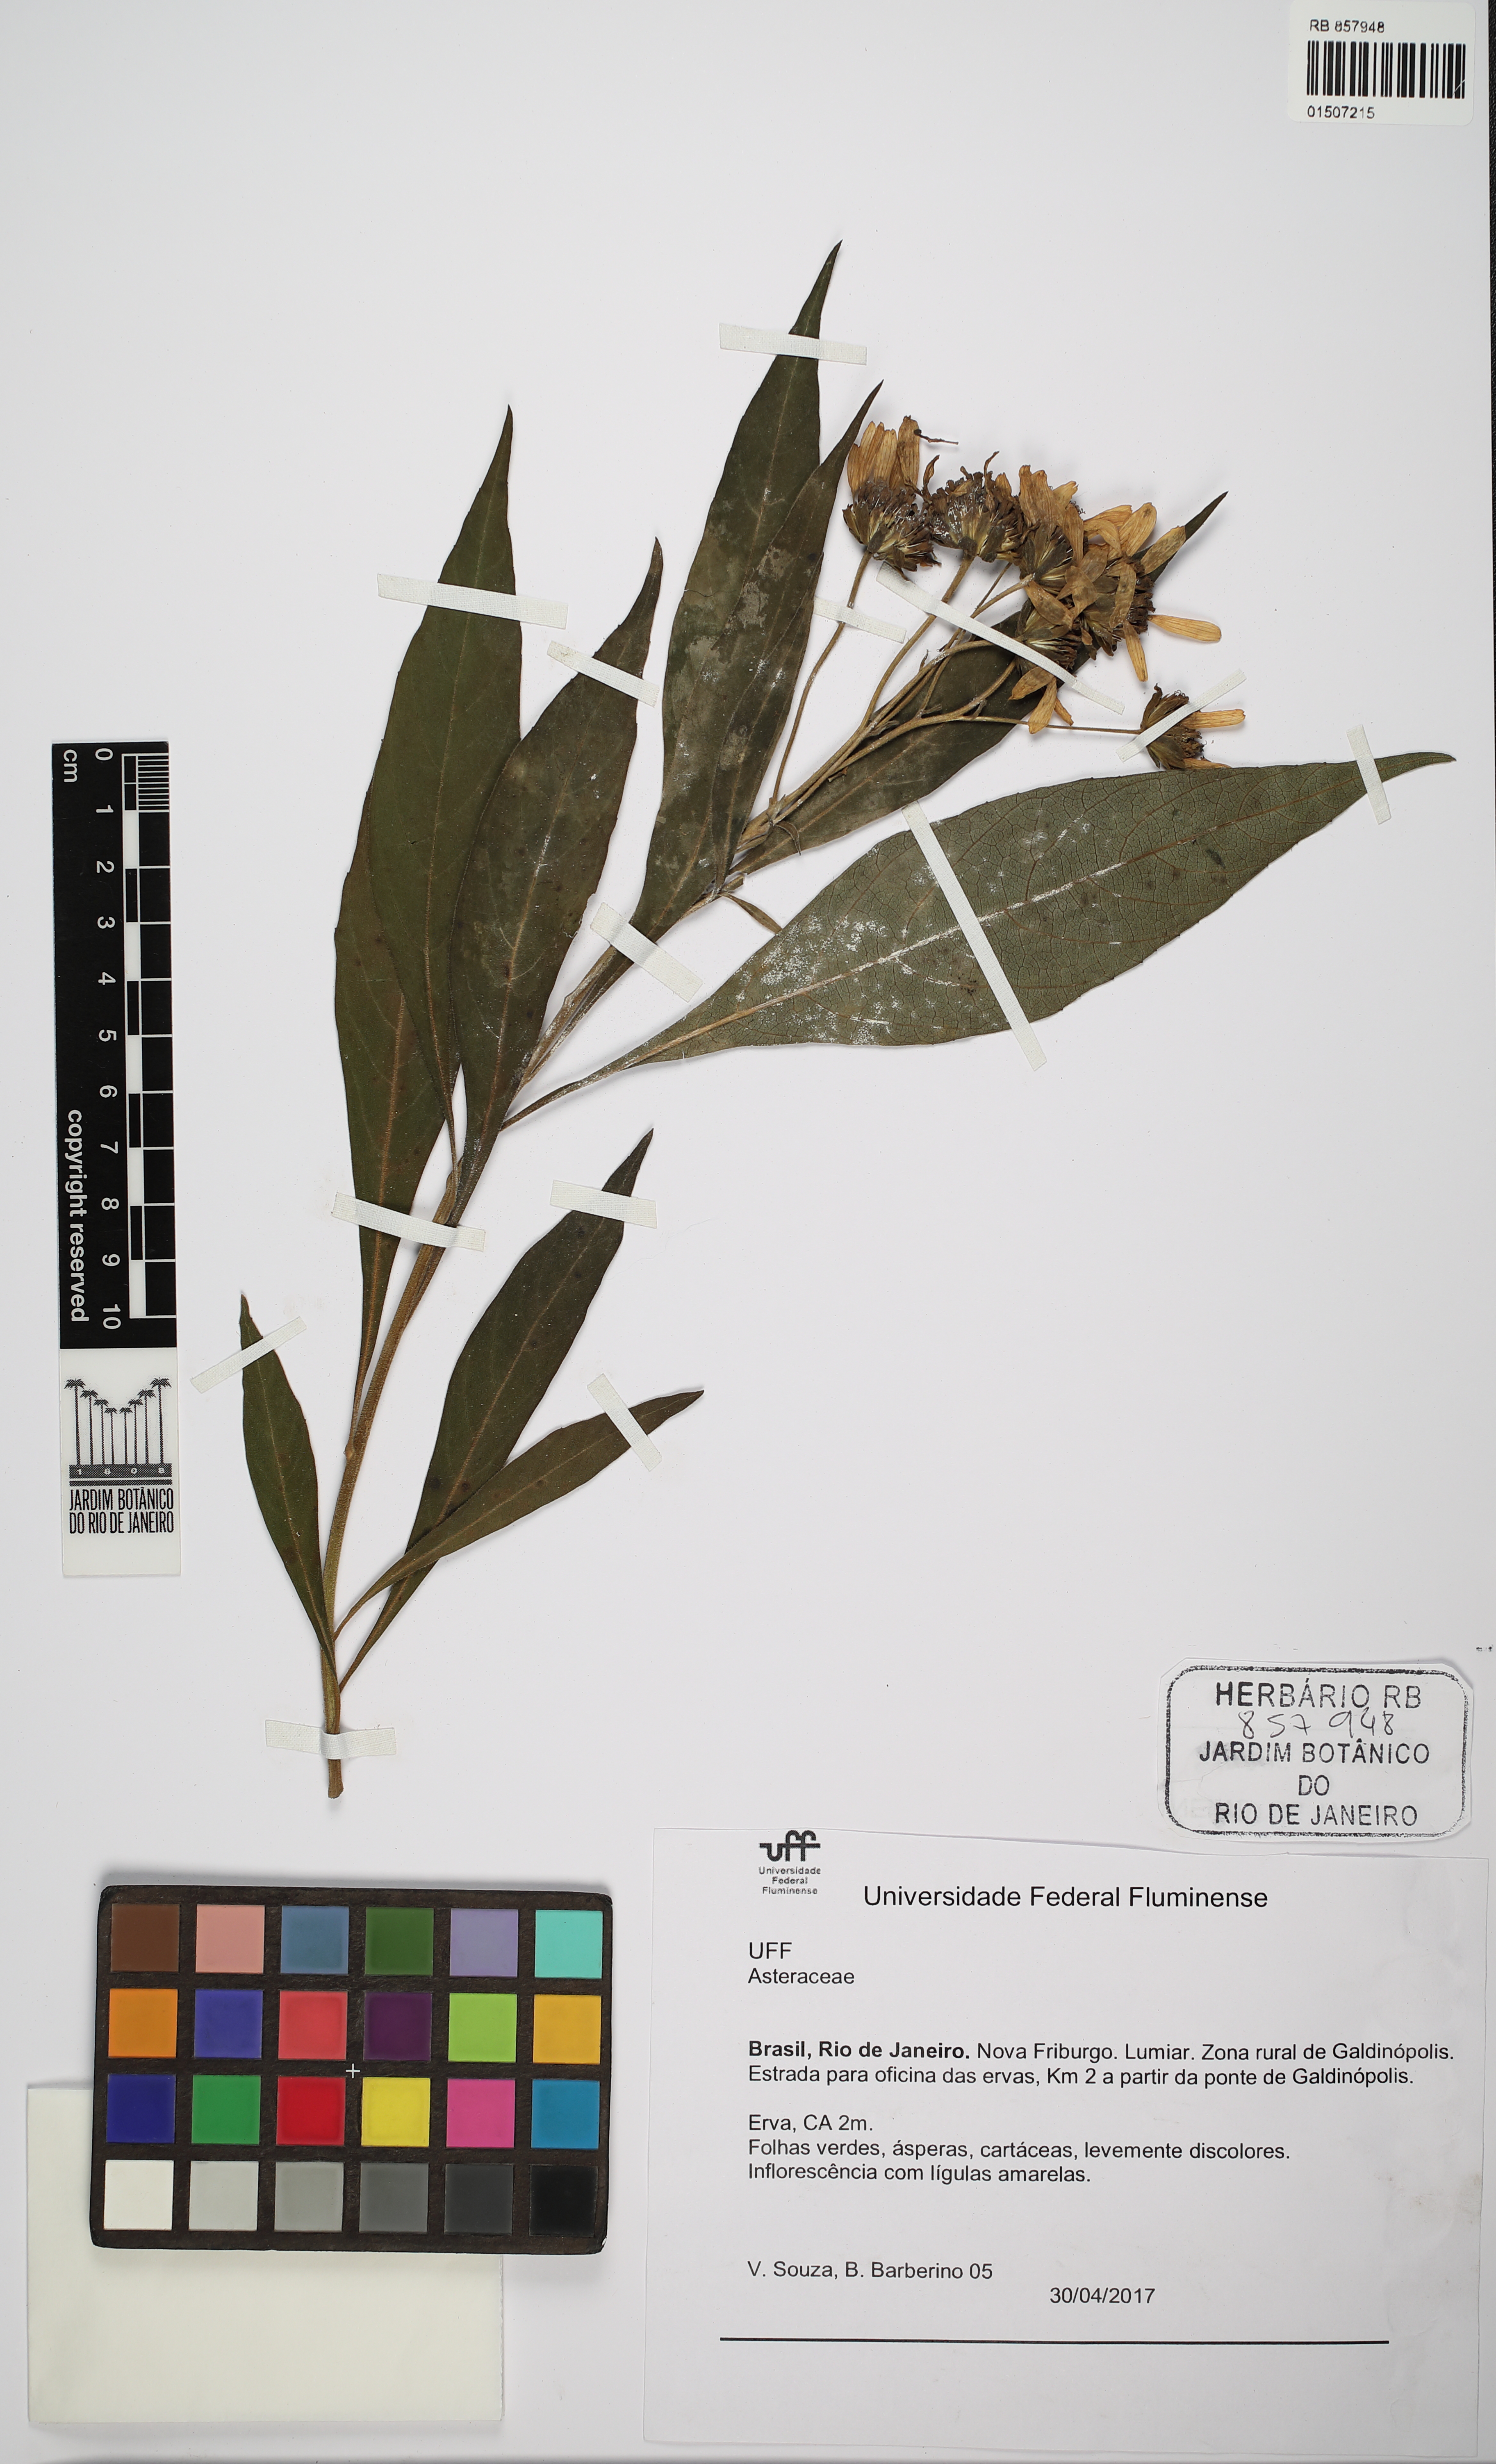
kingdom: Plantae
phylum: Tracheophyta
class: Magnoliopsida
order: Asterales
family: Asteraceae
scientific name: Asteraceae
